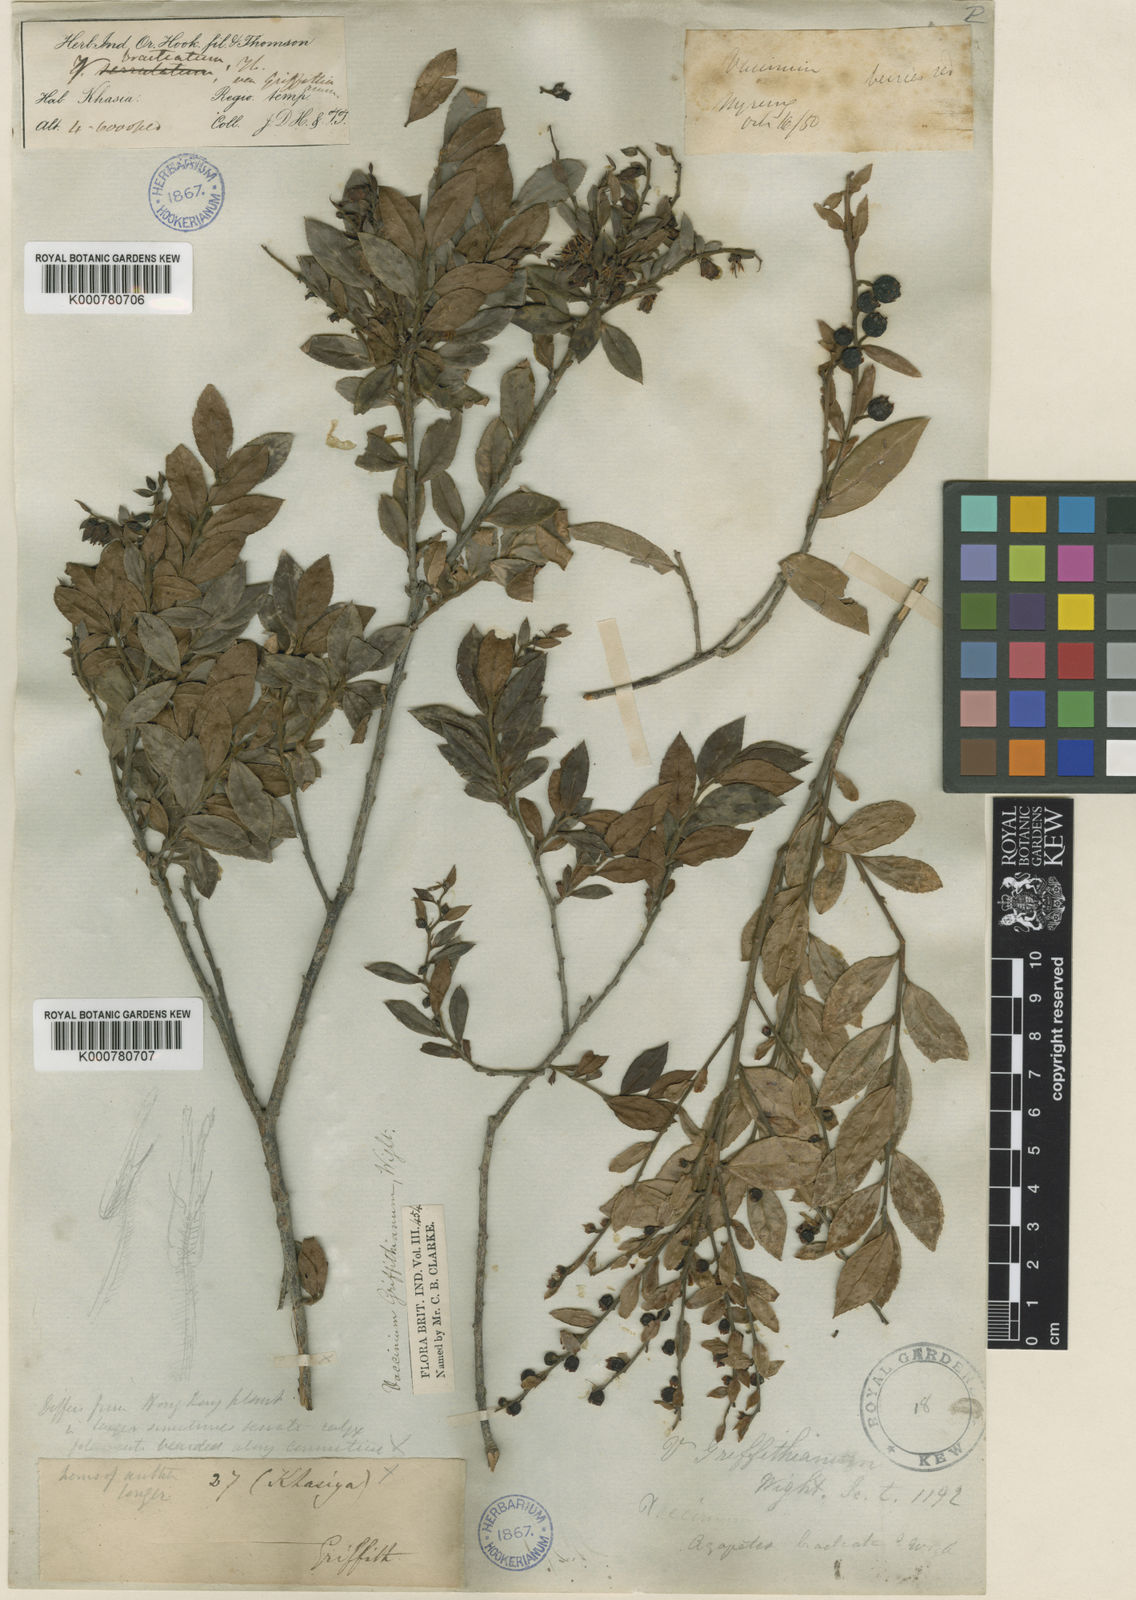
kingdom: Plantae
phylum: Tracheophyta
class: Magnoliopsida
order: Ericales
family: Ericaceae
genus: Vaccinium
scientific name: Vaccinium griffithianum
